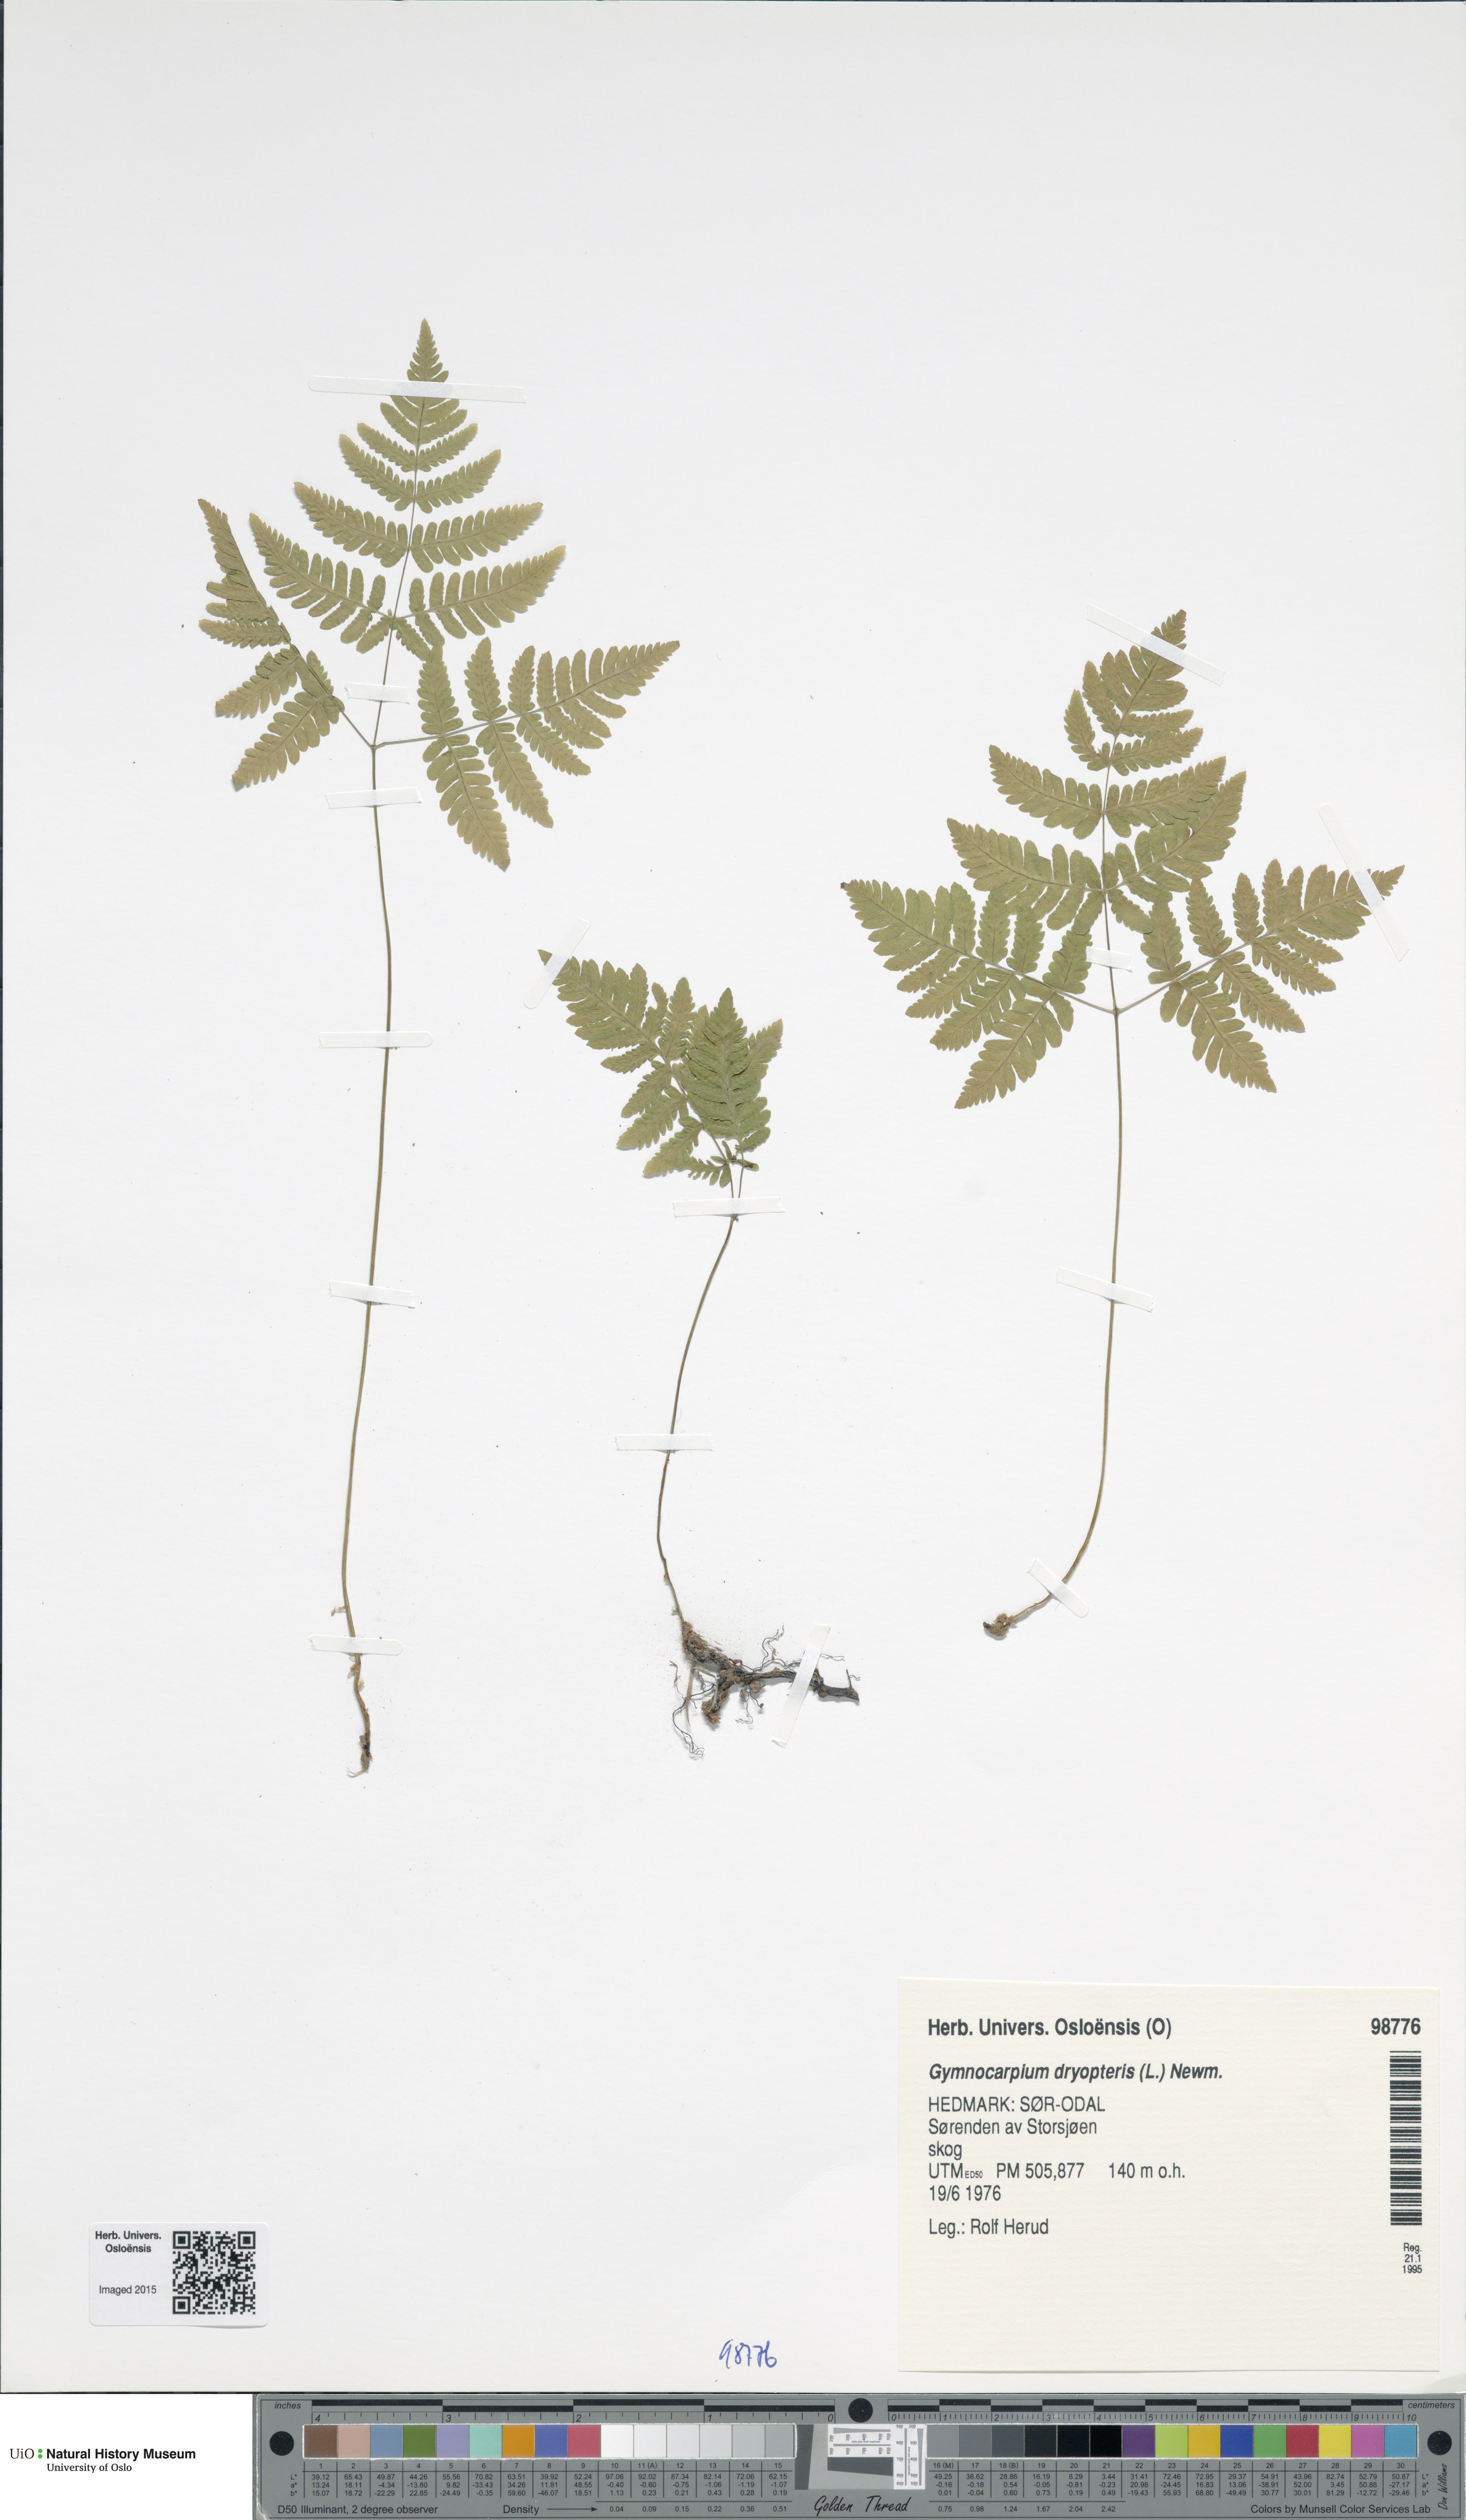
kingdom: Plantae
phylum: Tracheophyta
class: Polypodiopsida
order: Polypodiales
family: Cystopteridaceae
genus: Gymnocarpium
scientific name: Gymnocarpium dryopteris
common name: Oak fern
